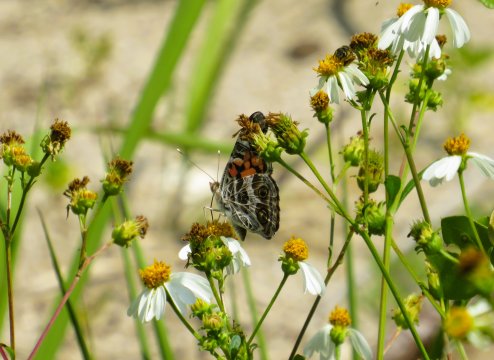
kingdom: Animalia
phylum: Arthropoda
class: Insecta
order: Lepidoptera
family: Nymphalidae
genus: Vanessa
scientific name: Vanessa virginiensis
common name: American Lady
